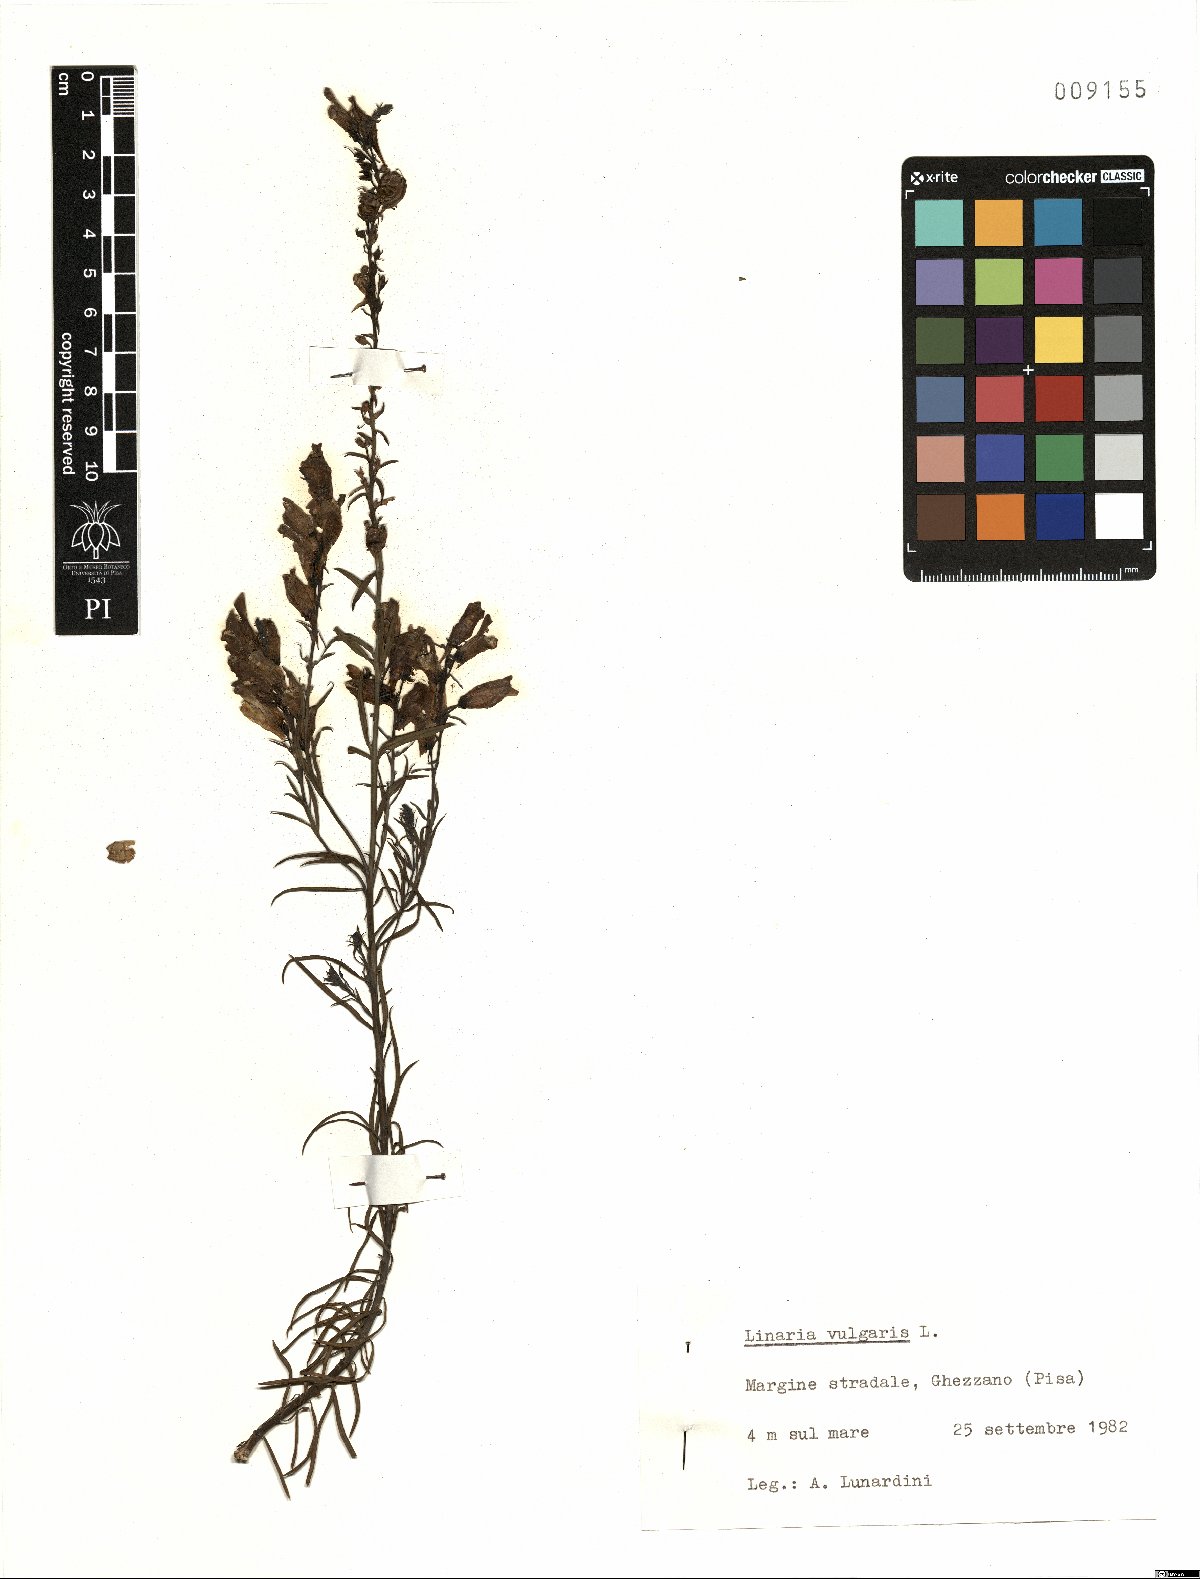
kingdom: Plantae
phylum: Tracheophyta
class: Magnoliopsida
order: Lamiales
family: Plantaginaceae
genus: Linaria
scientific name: Linaria vulgaris
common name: Butter and eggs
